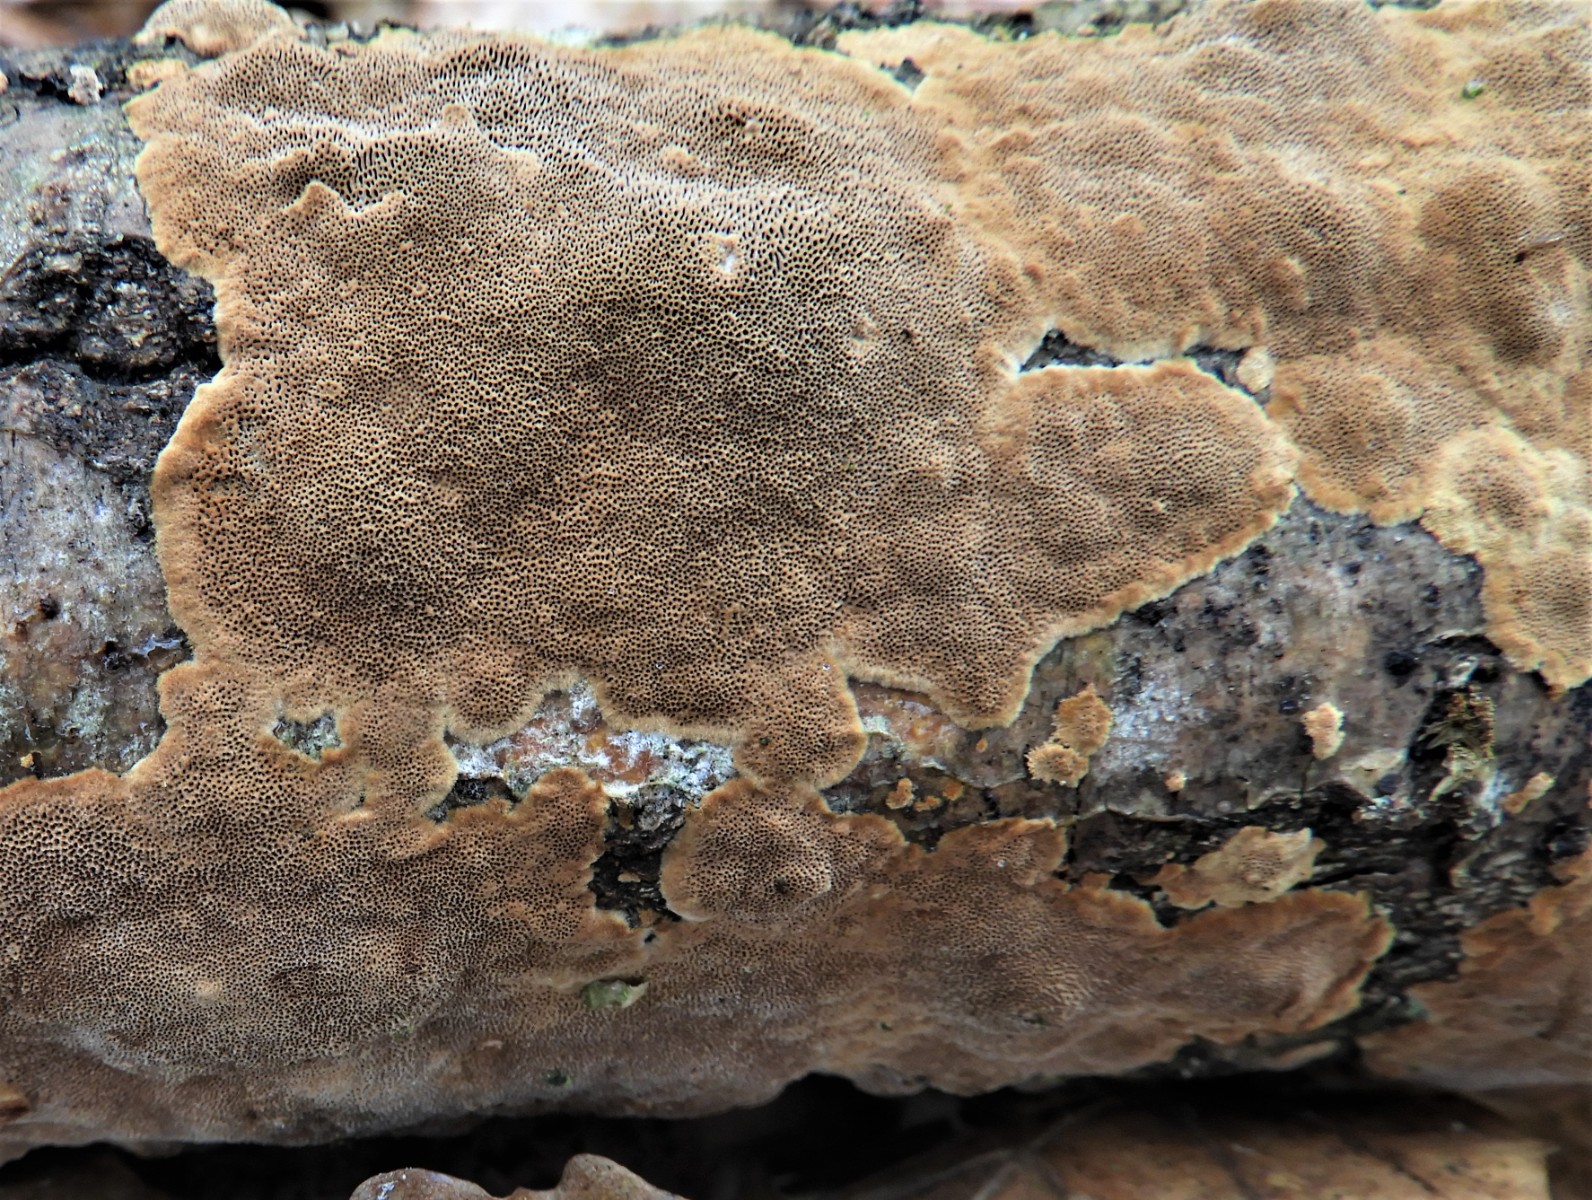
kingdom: Fungi
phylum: Basidiomycota
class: Agaricomycetes
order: Hymenochaetales
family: Hymenochaetaceae
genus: Fuscoporia
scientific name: Fuscoporia ferrea
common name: skorpe-ildporesvamp
